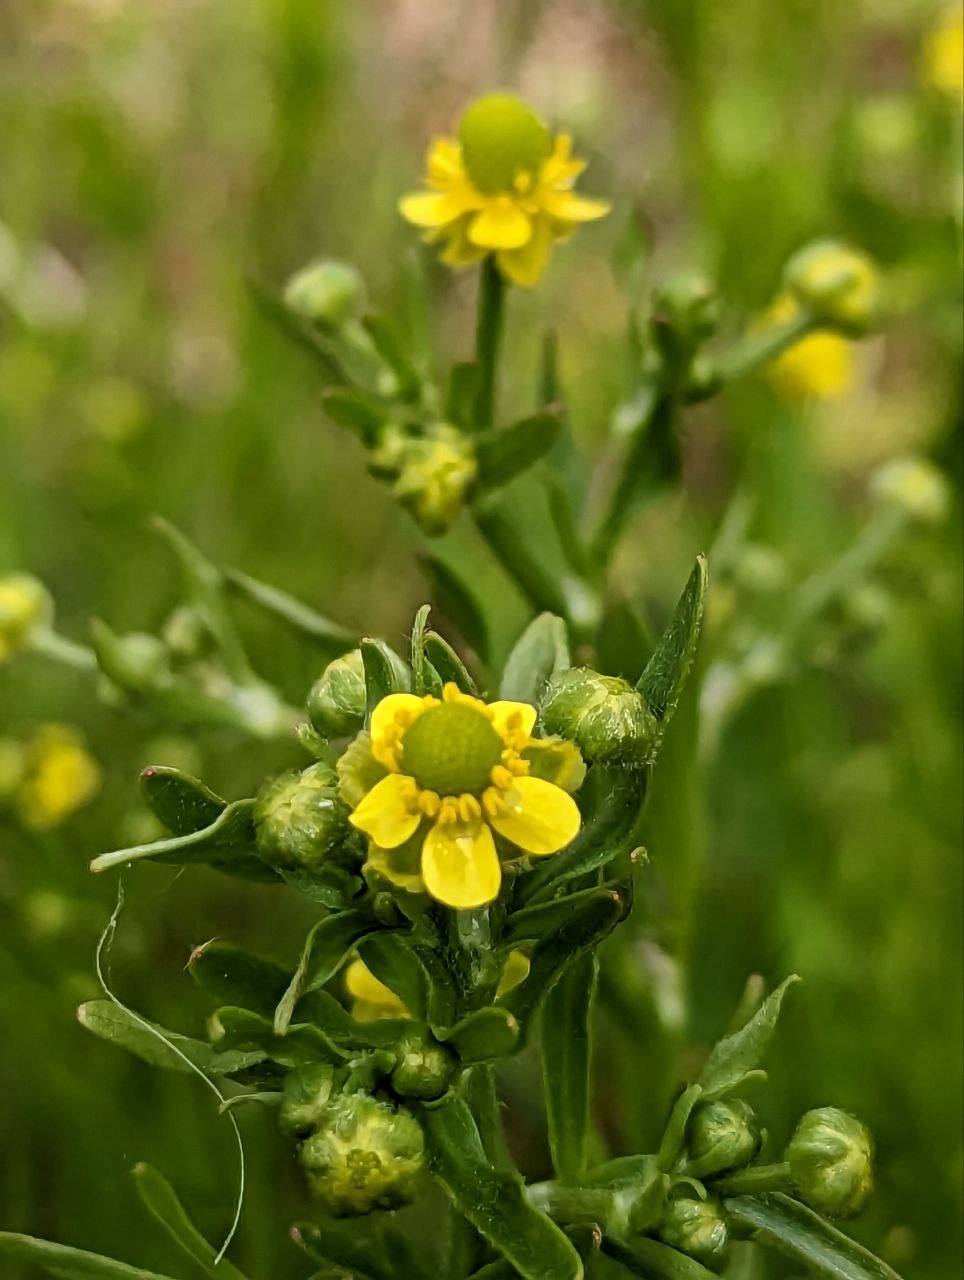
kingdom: Plantae
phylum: Tracheophyta
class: Magnoliopsida
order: Ranunculales
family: Ranunculaceae
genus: Ranunculus
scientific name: Ranunculus sceleratus
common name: Tigger-ranunkel
